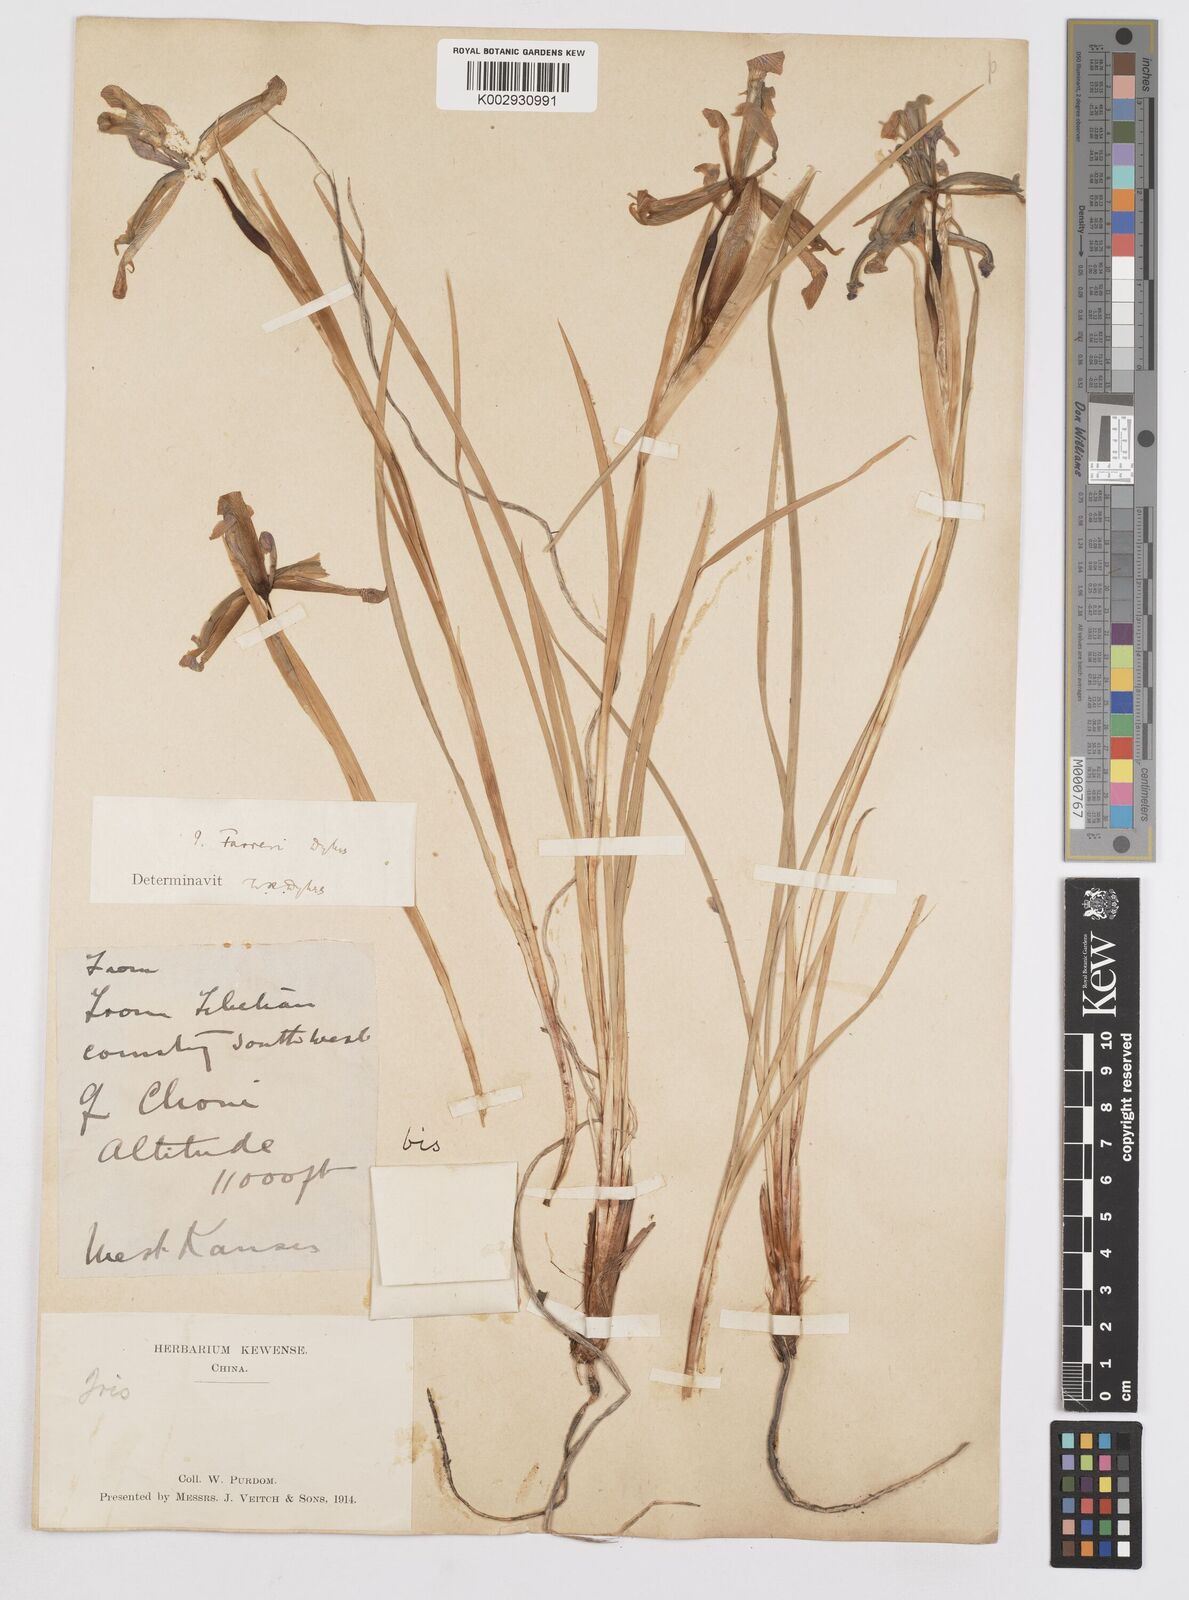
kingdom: Plantae
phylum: Tracheophyta
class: Liliopsida
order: Asparagales
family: Iridaceae
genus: Iris
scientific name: Iris farreri
